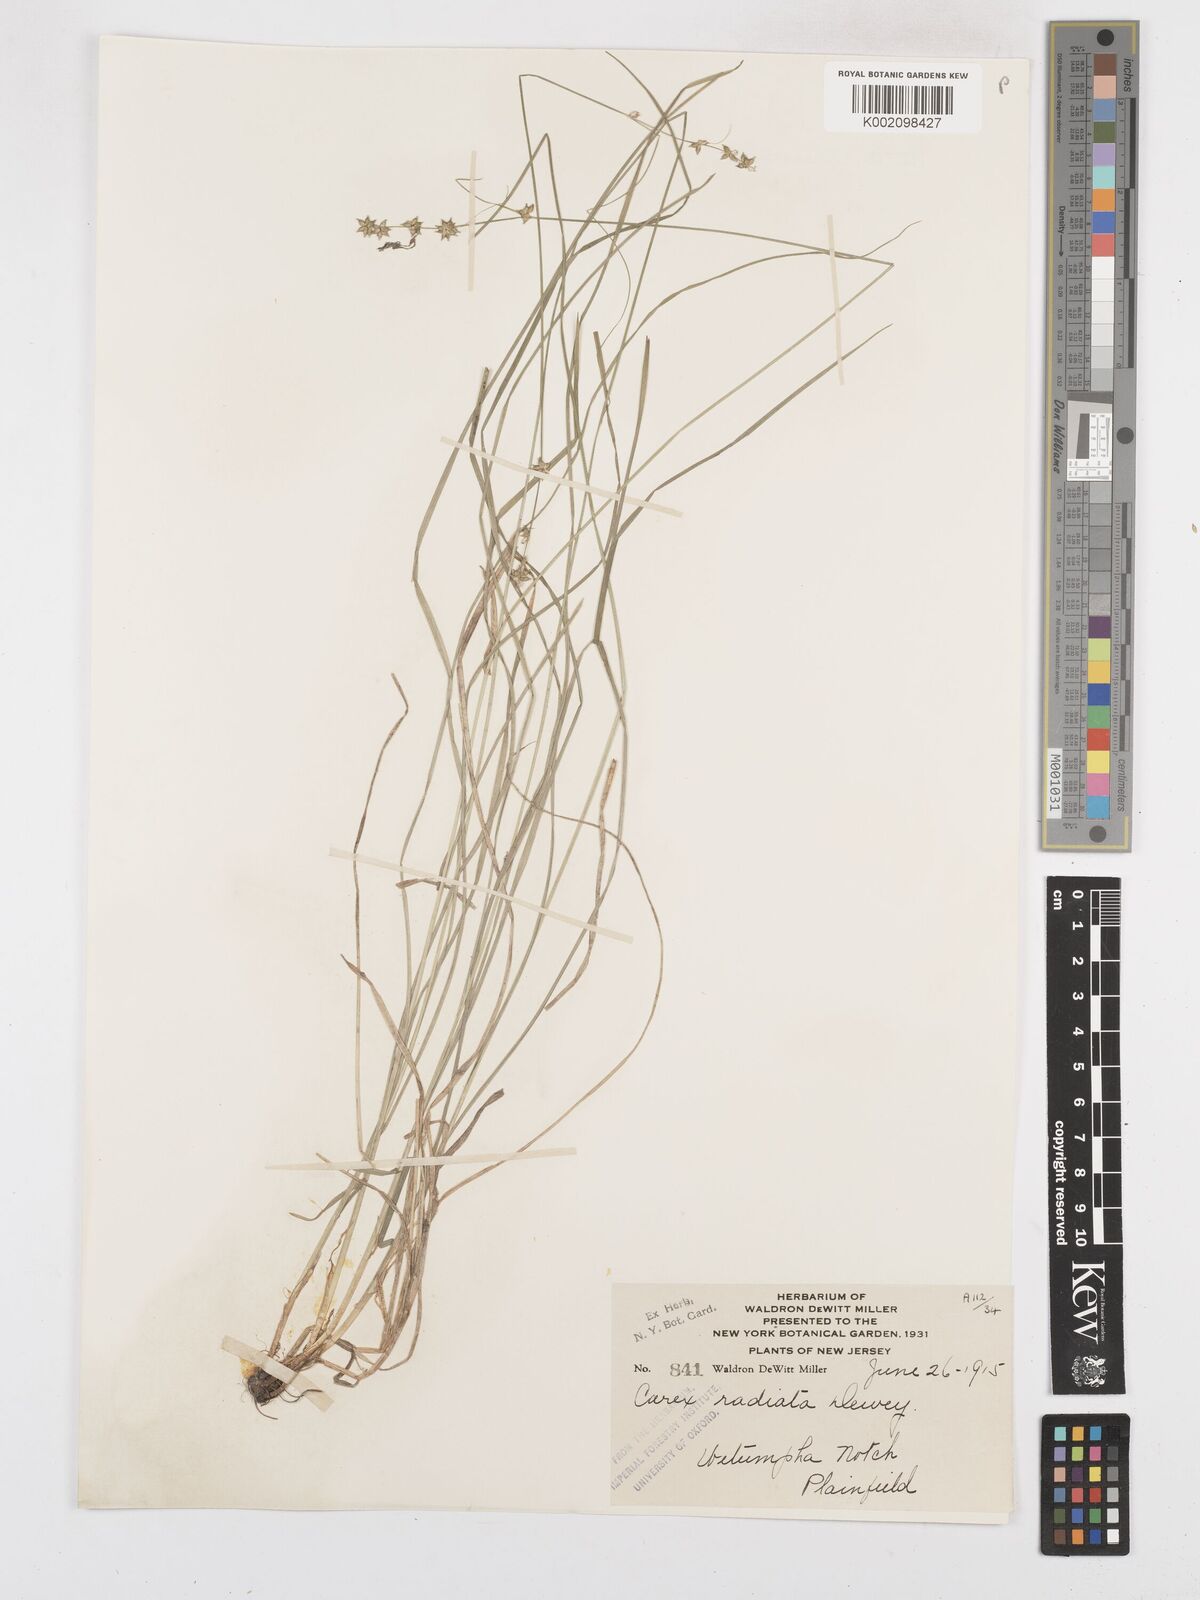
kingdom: Plantae
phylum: Tracheophyta
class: Liliopsida
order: Poales
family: Cyperaceae
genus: Carex
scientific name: Carex
